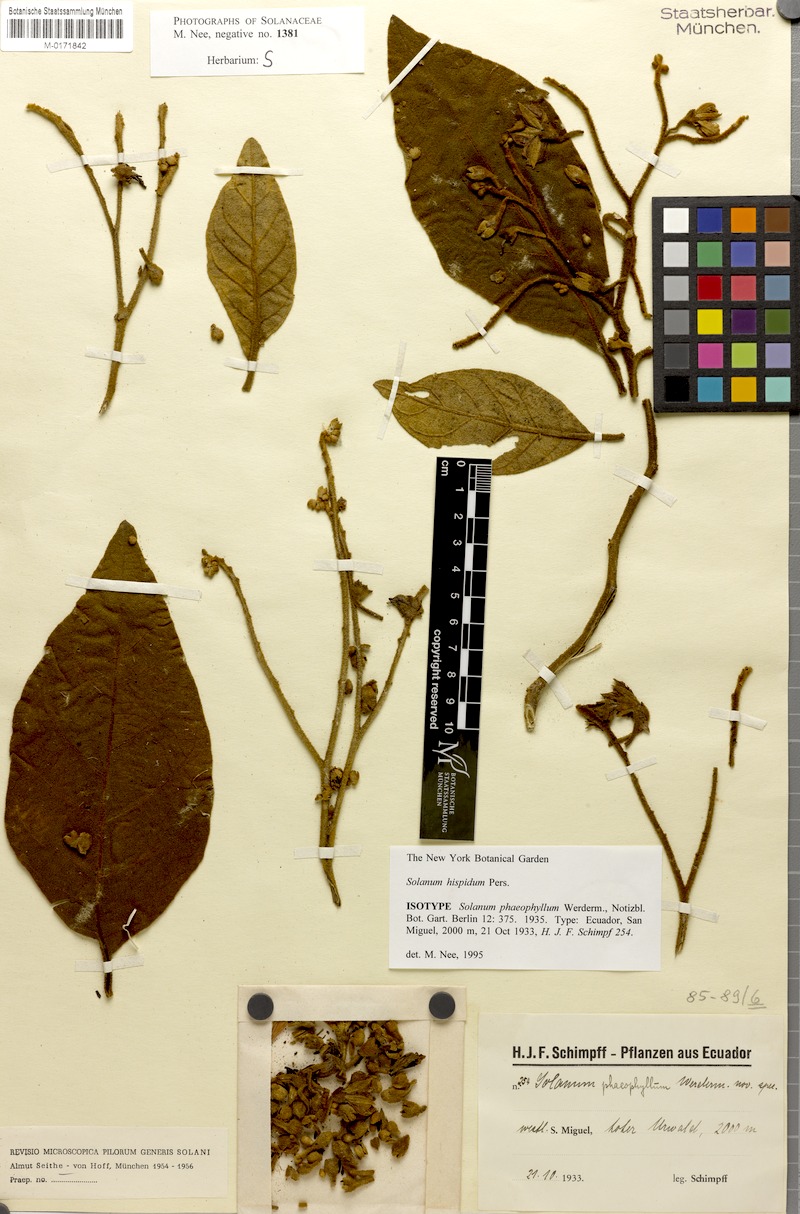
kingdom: Plantae
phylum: Tracheophyta
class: Magnoliopsida
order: Solanales
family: Solanaceae
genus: Solanum
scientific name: Solanum asperolanatum
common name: Devil's-fig
